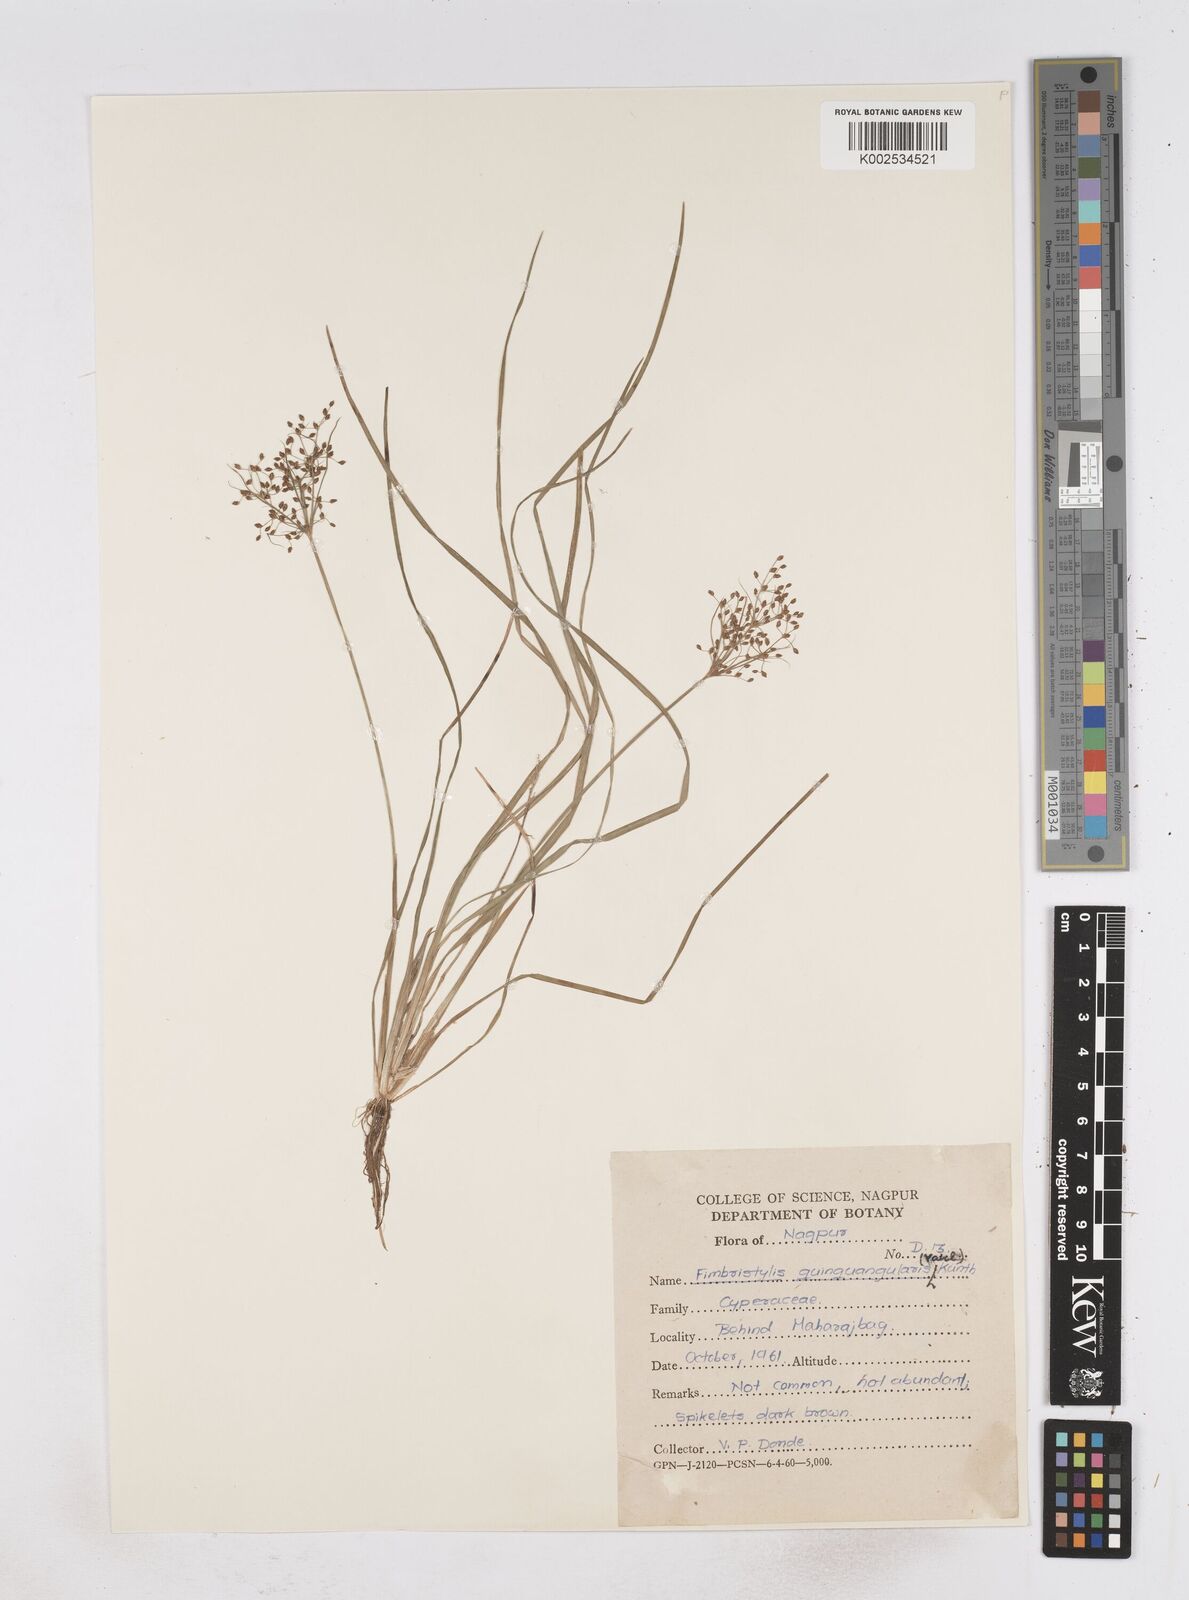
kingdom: Plantae
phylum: Tracheophyta
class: Liliopsida
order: Poales
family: Cyperaceae
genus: Fimbristylis
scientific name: Fimbristylis quinquangularis
